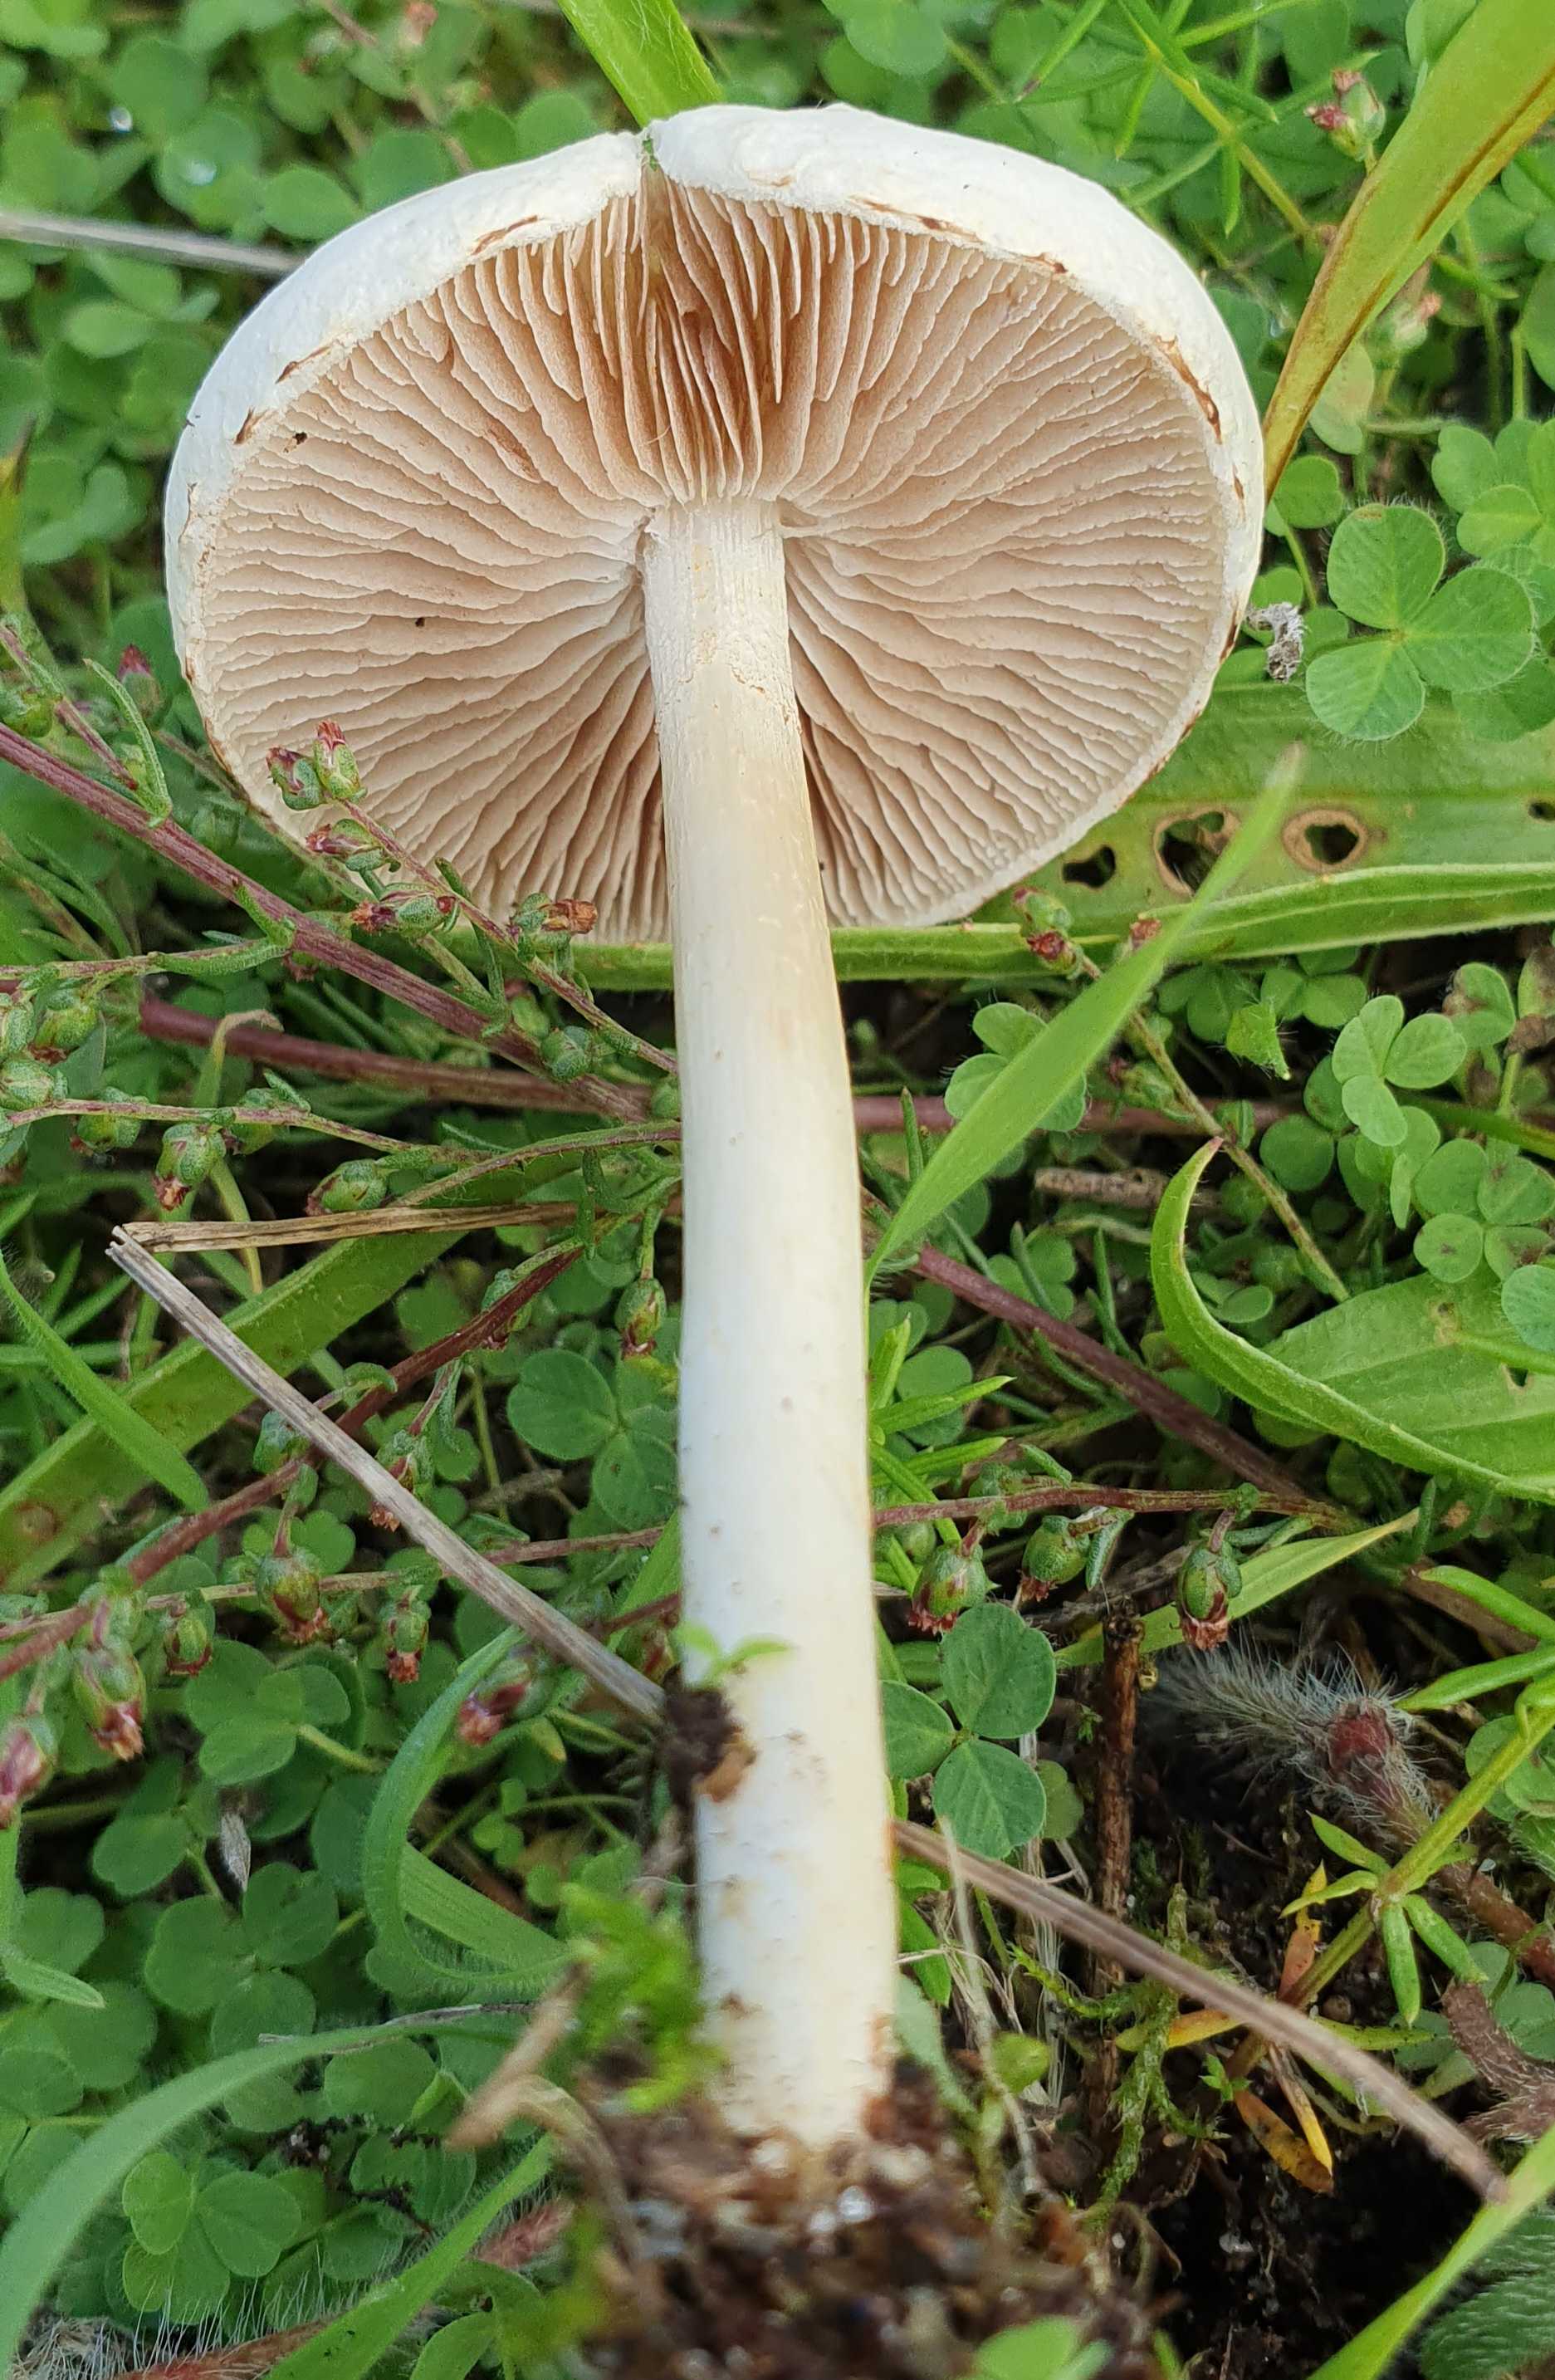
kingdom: Fungi
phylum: Basidiomycota
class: Agaricomycetes
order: Agaricales
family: Strophariaceae
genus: Agrocybe
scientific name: Agrocybe dura
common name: fastkødet agerhat
